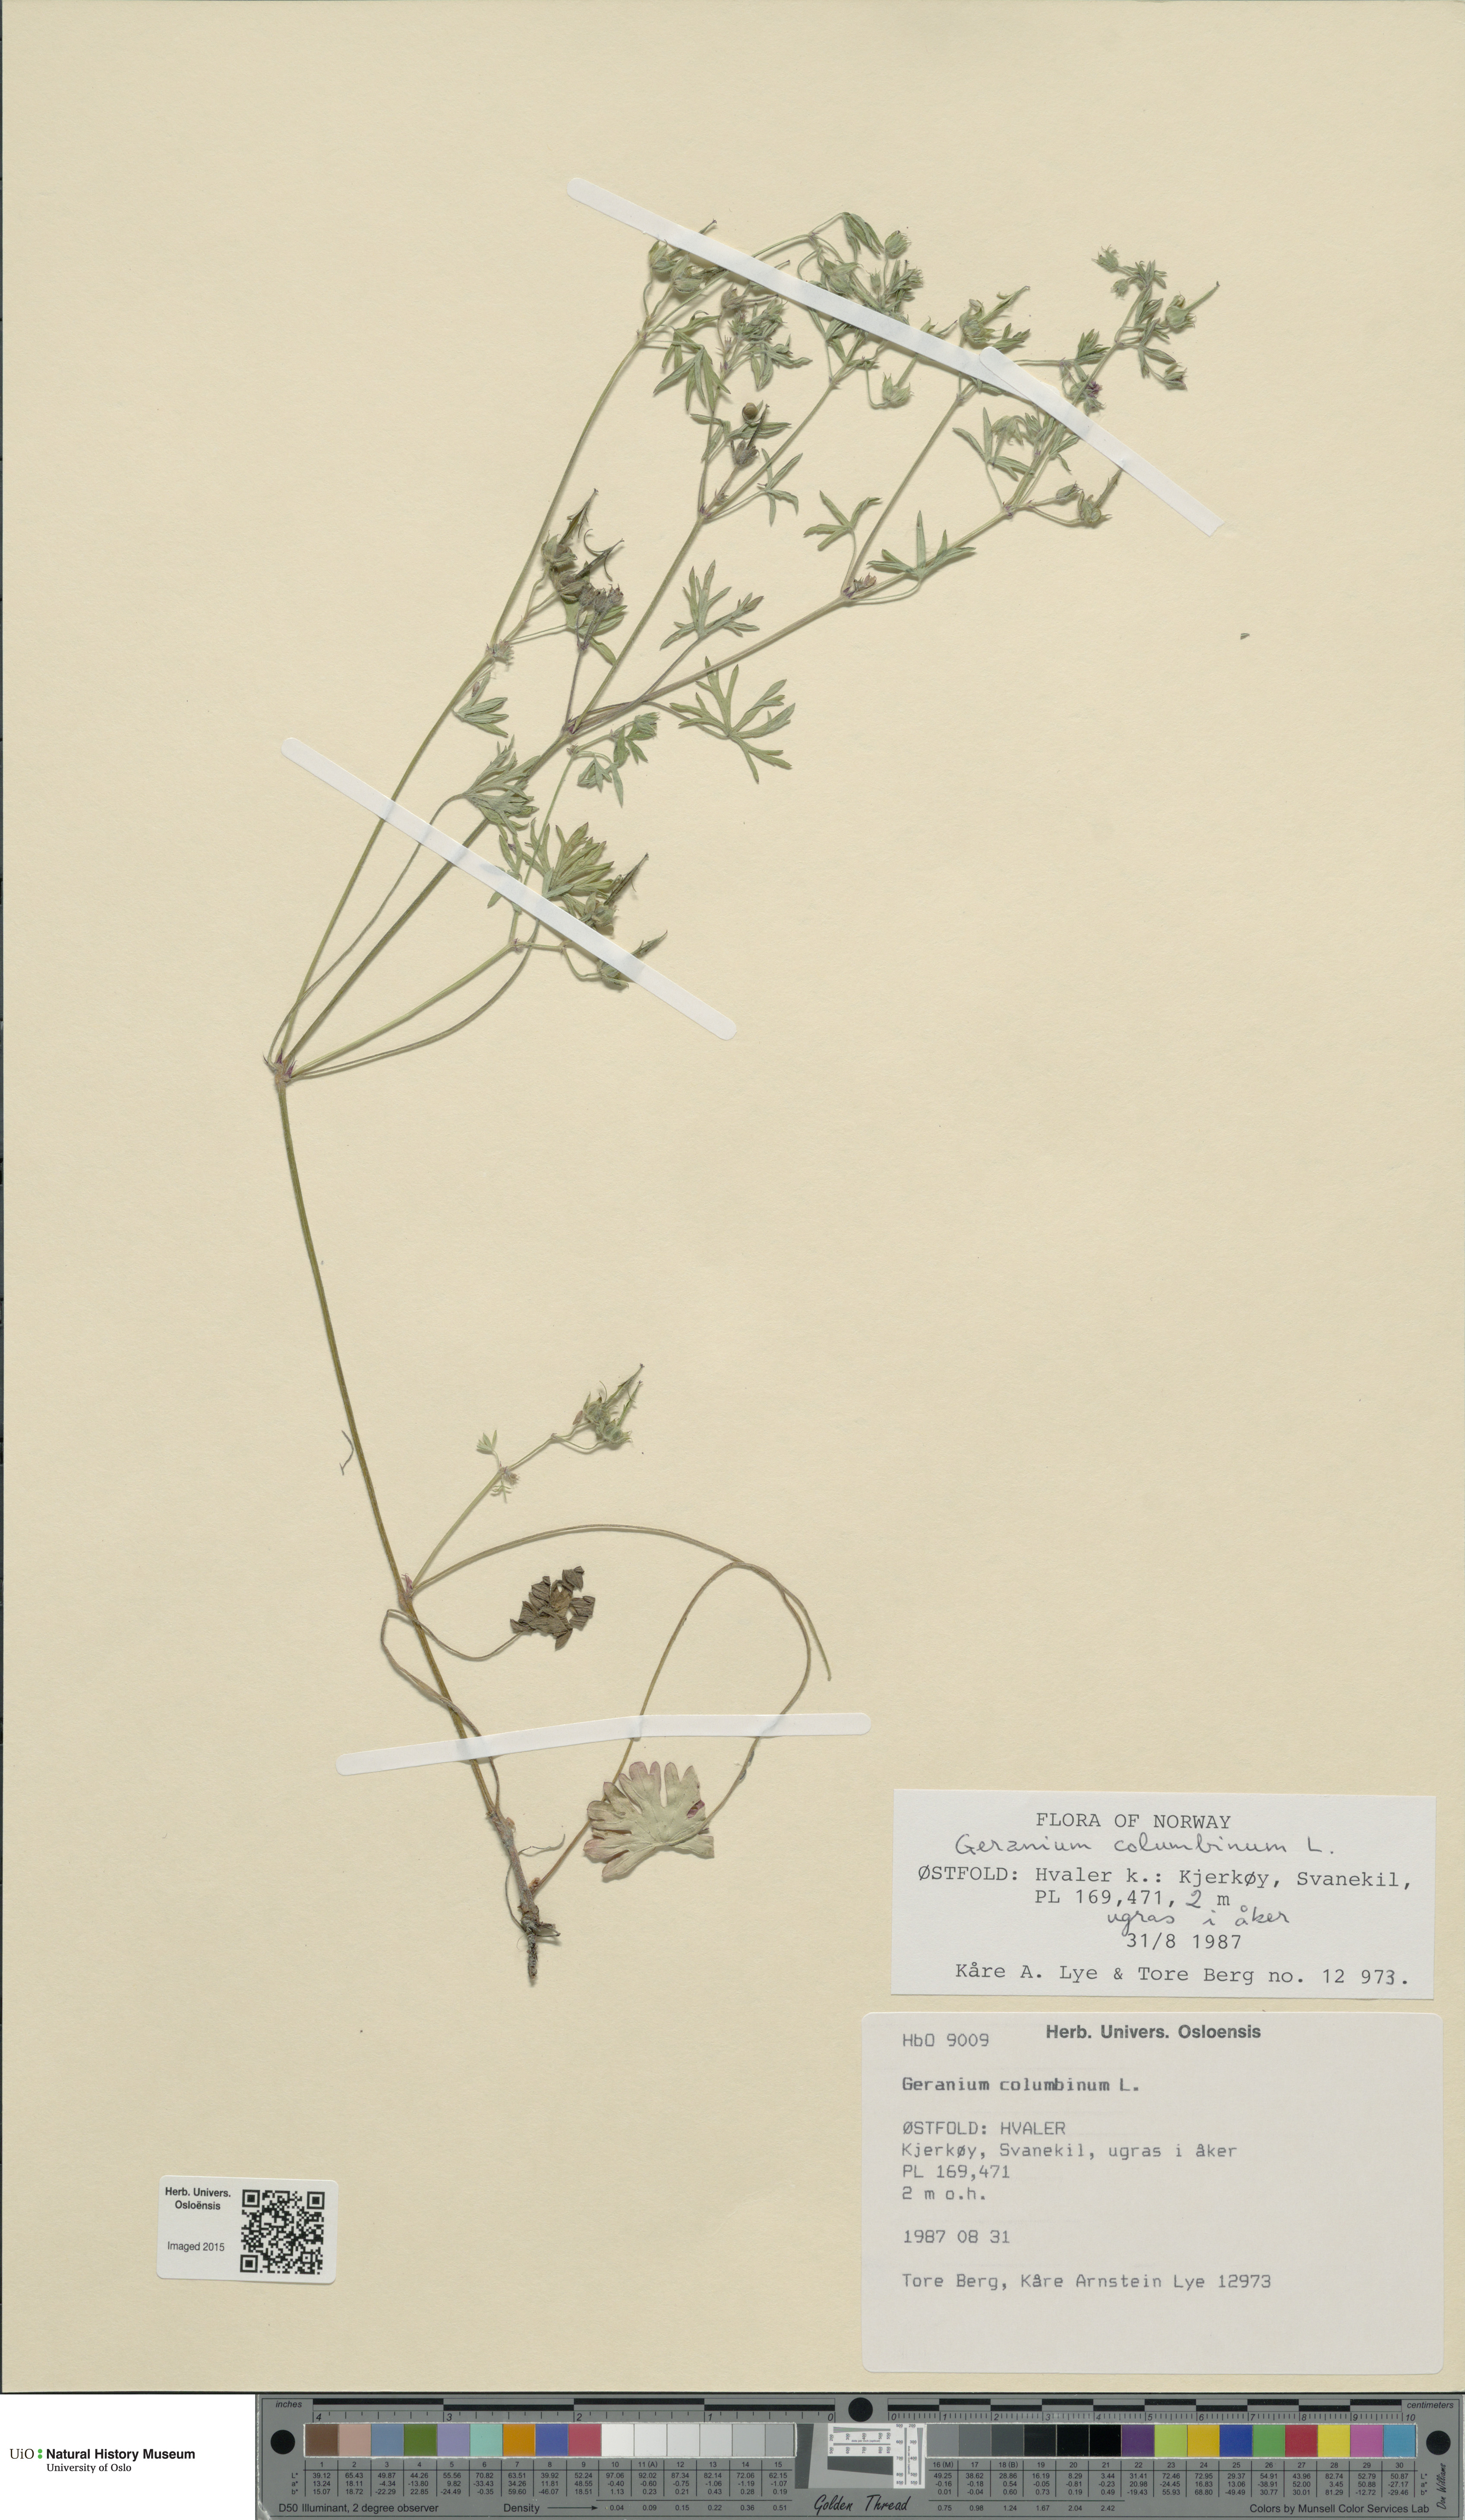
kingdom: Plantae
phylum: Tracheophyta
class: Magnoliopsida
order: Geraniales
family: Geraniaceae
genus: Geranium
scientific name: Geranium columbinum
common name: Long-stalked crane's-bill
